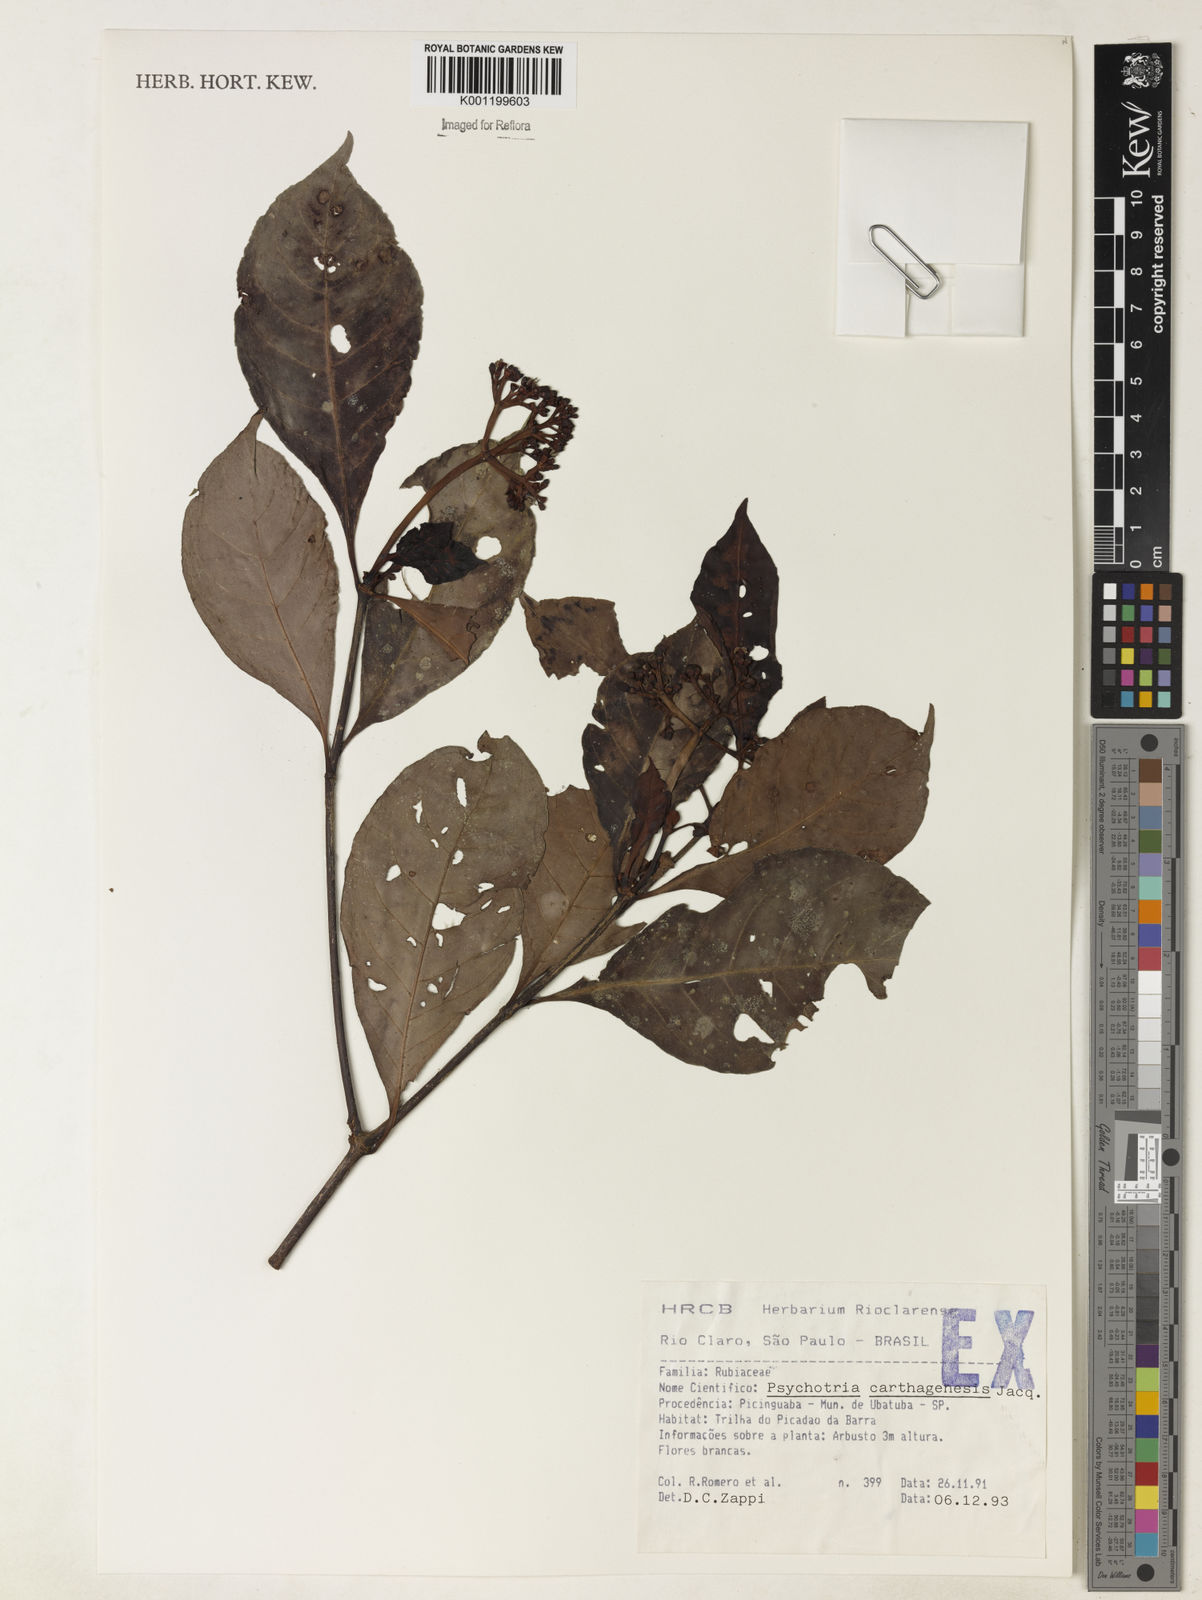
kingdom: Plantae
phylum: Tracheophyta
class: Magnoliopsida
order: Gentianales
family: Rubiaceae
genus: Psychotria
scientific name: Psychotria carthagenensis
